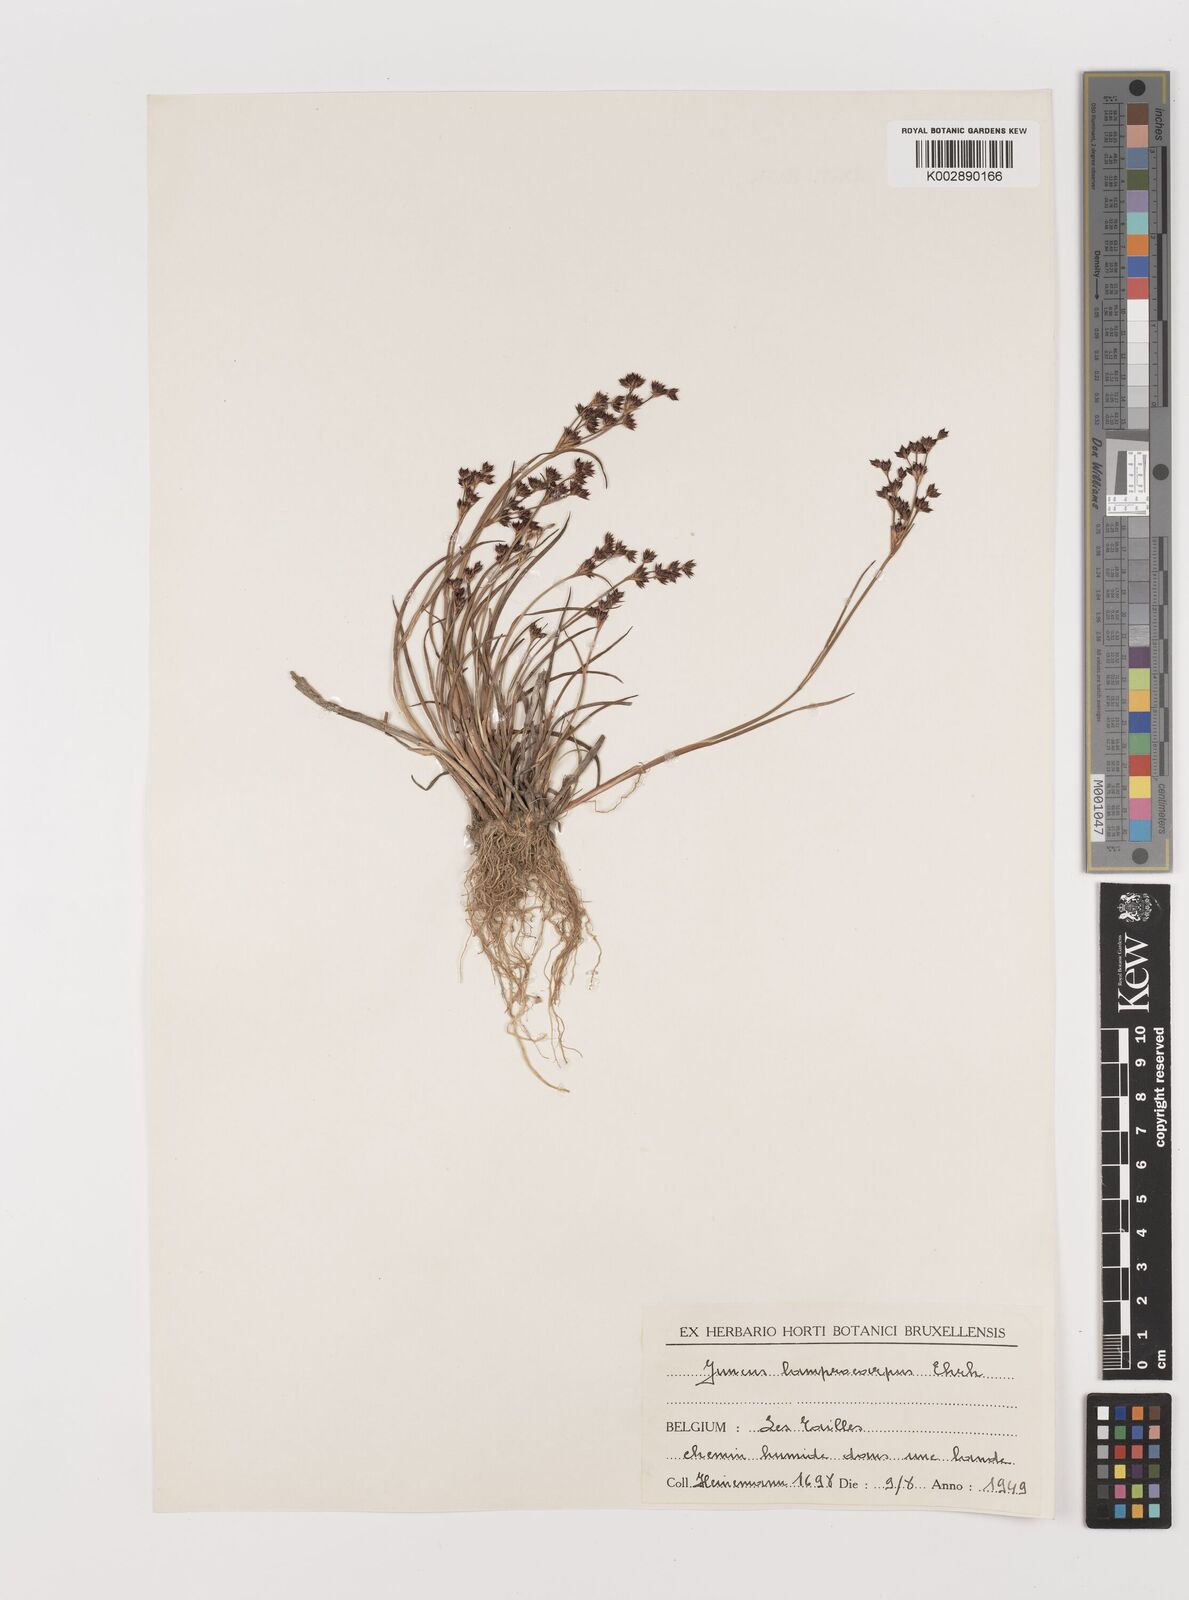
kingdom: Plantae
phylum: Tracheophyta
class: Liliopsida
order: Poales
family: Juncaceae
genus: Juncus
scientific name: Juncus articulatus
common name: Jointed rush
